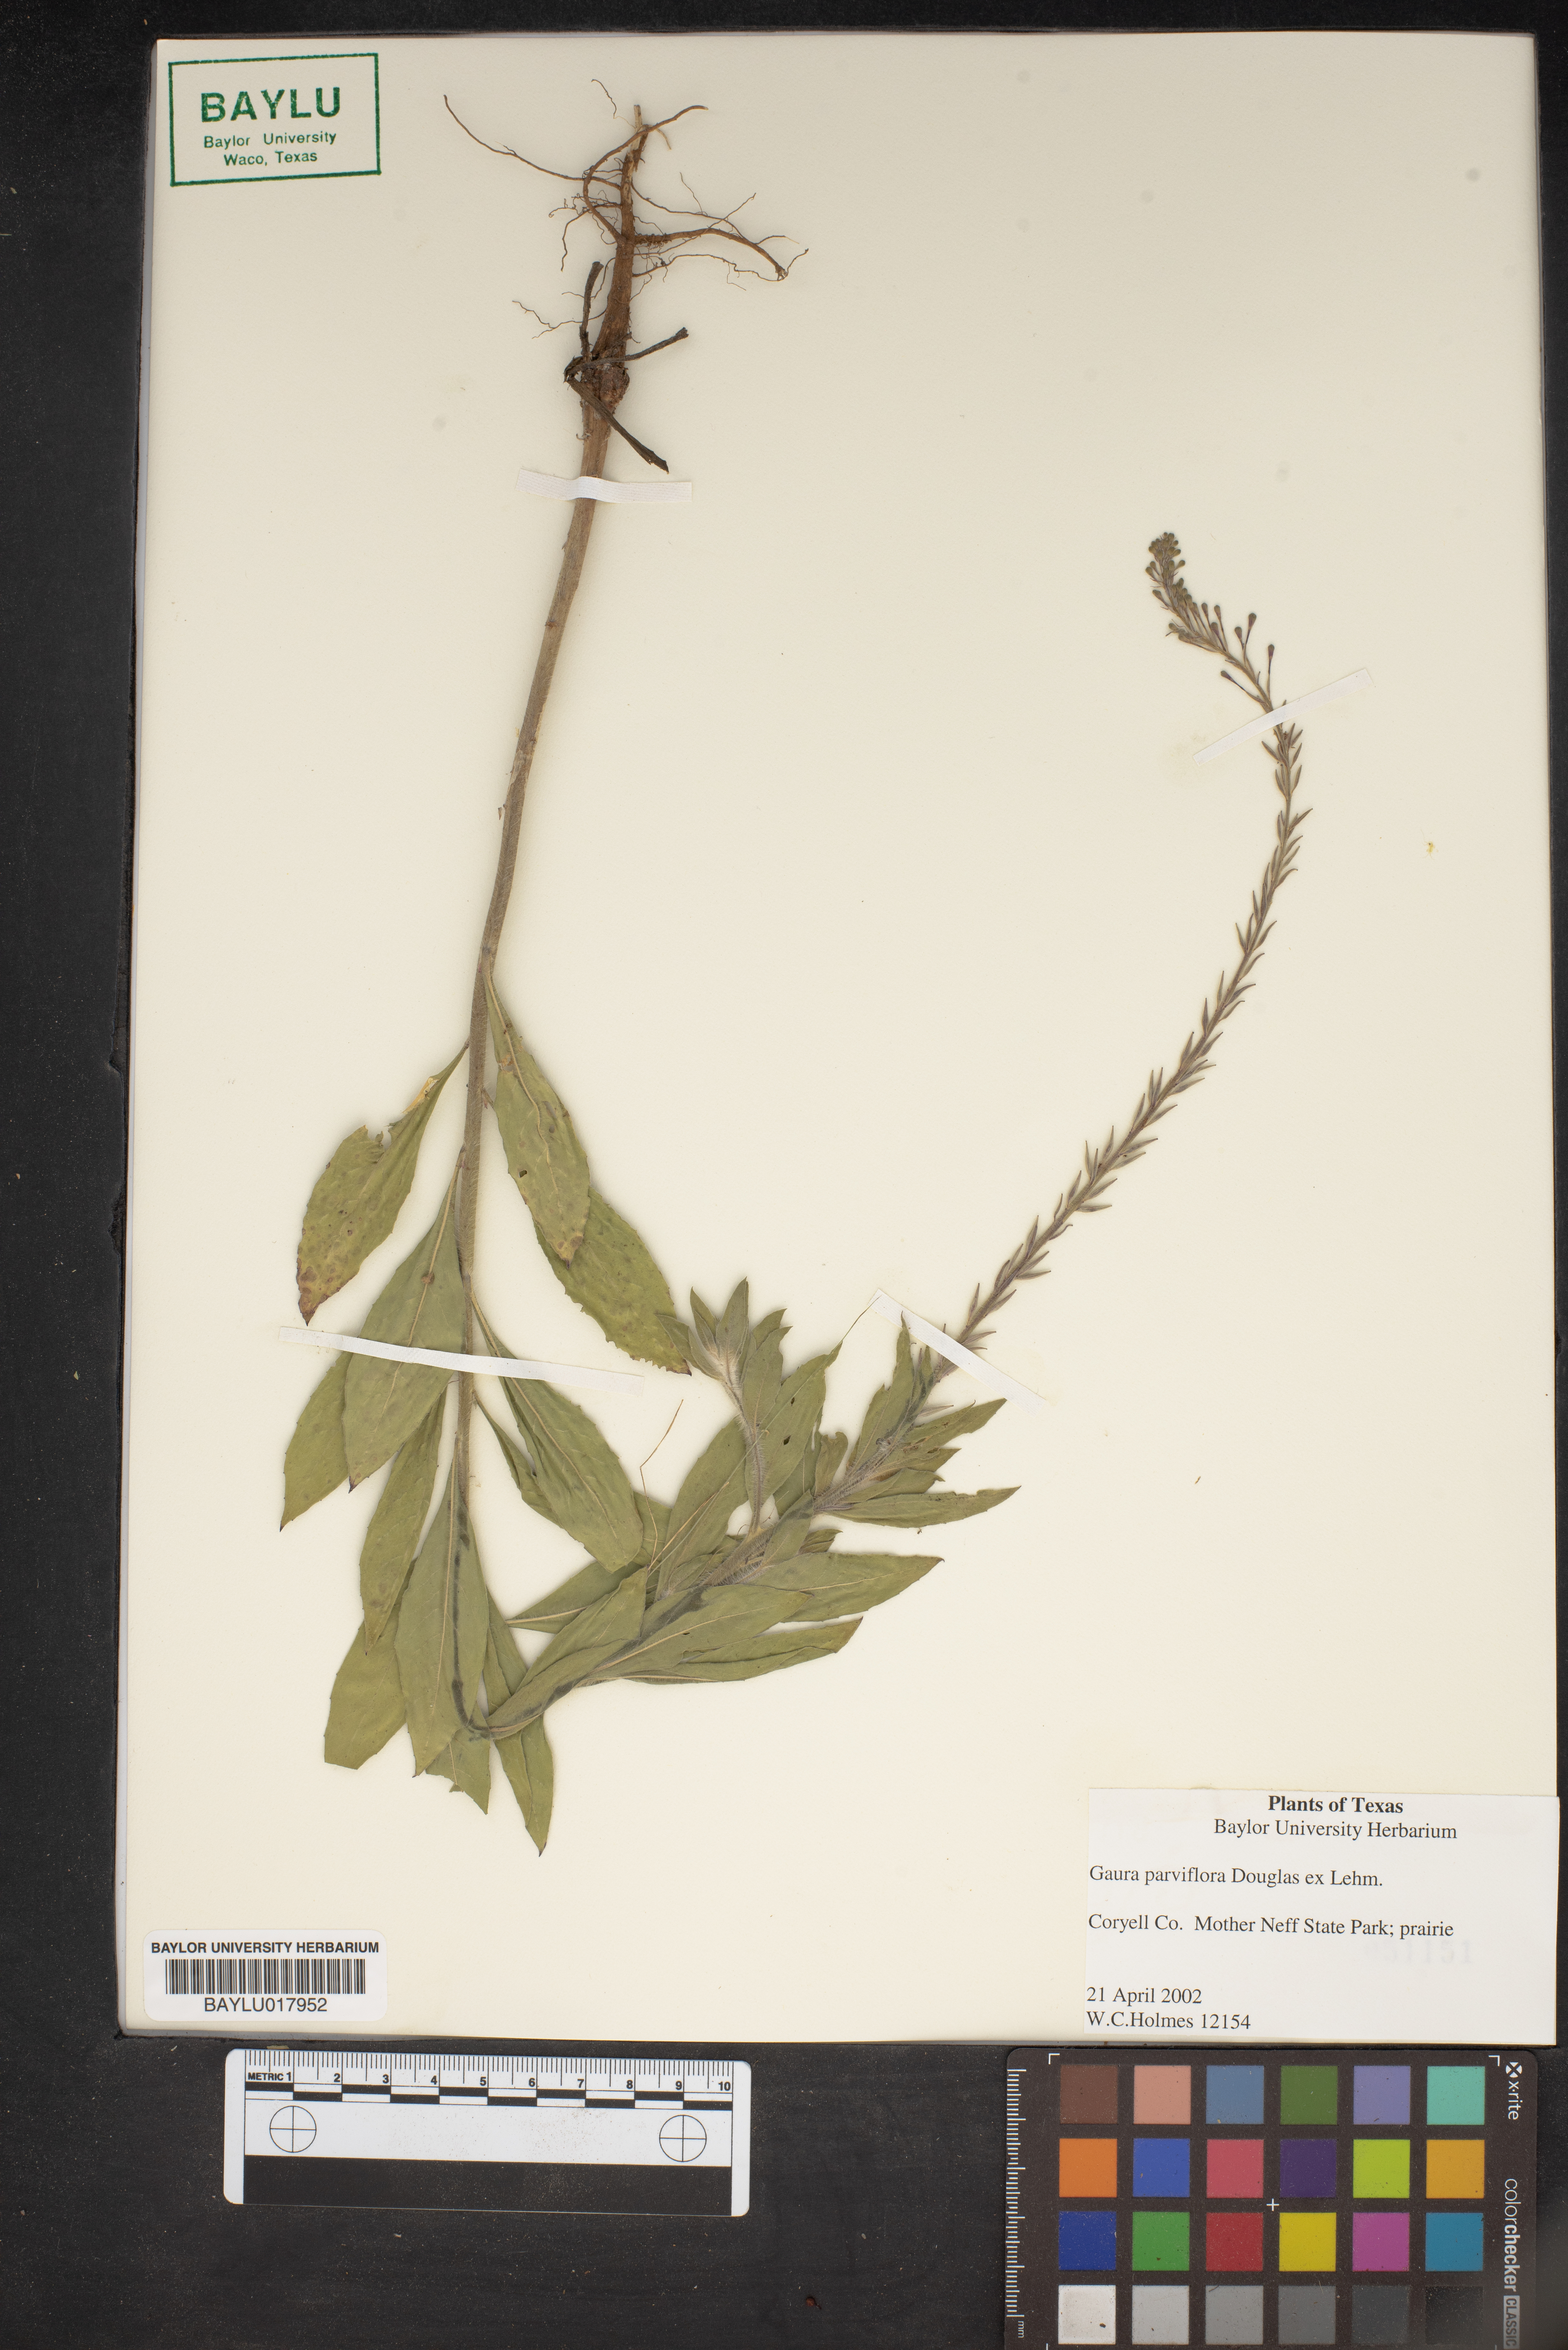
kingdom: Plantae
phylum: Tracheophyta
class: Magnoliopsida
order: Myrtales
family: Onagraceae
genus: Oenothera
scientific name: Oenothera curtiflora
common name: Velvetweed
